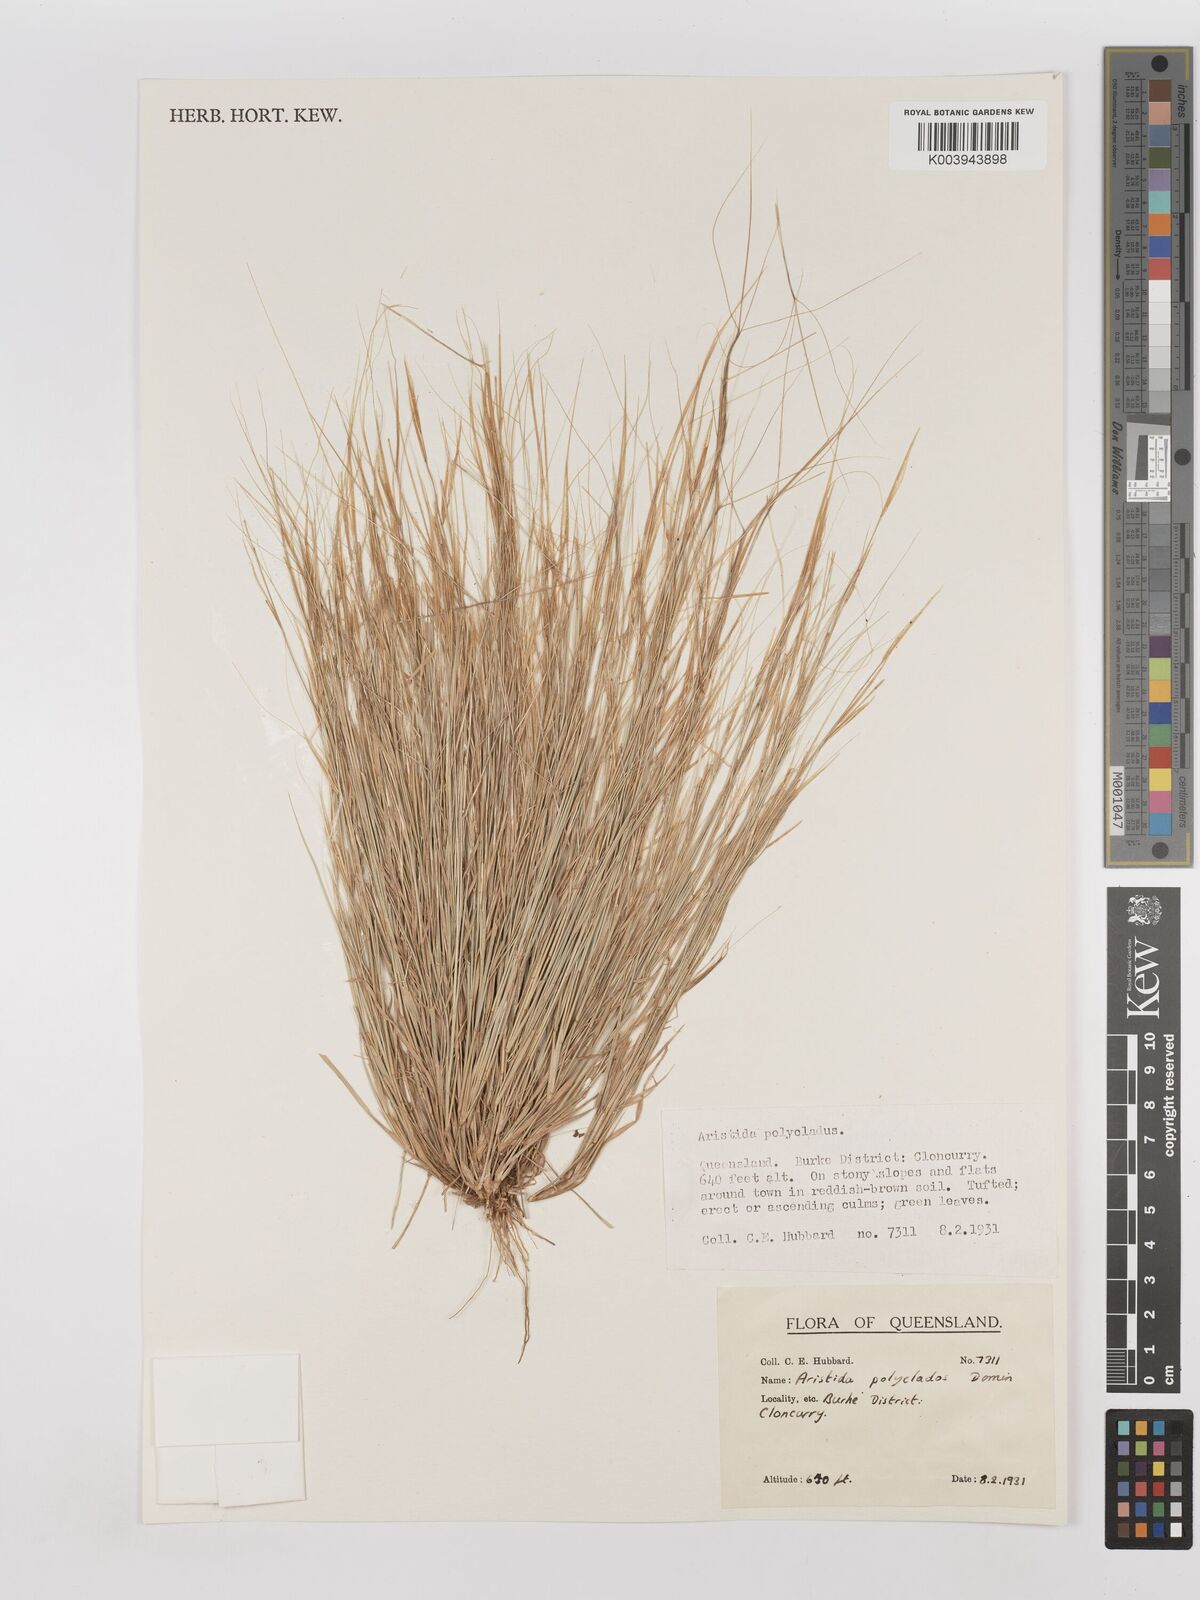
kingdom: Plantae
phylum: Tracheophyta
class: Liliopsida
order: Poales
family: Poaceae
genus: Aristida
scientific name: Aristida polyclados
